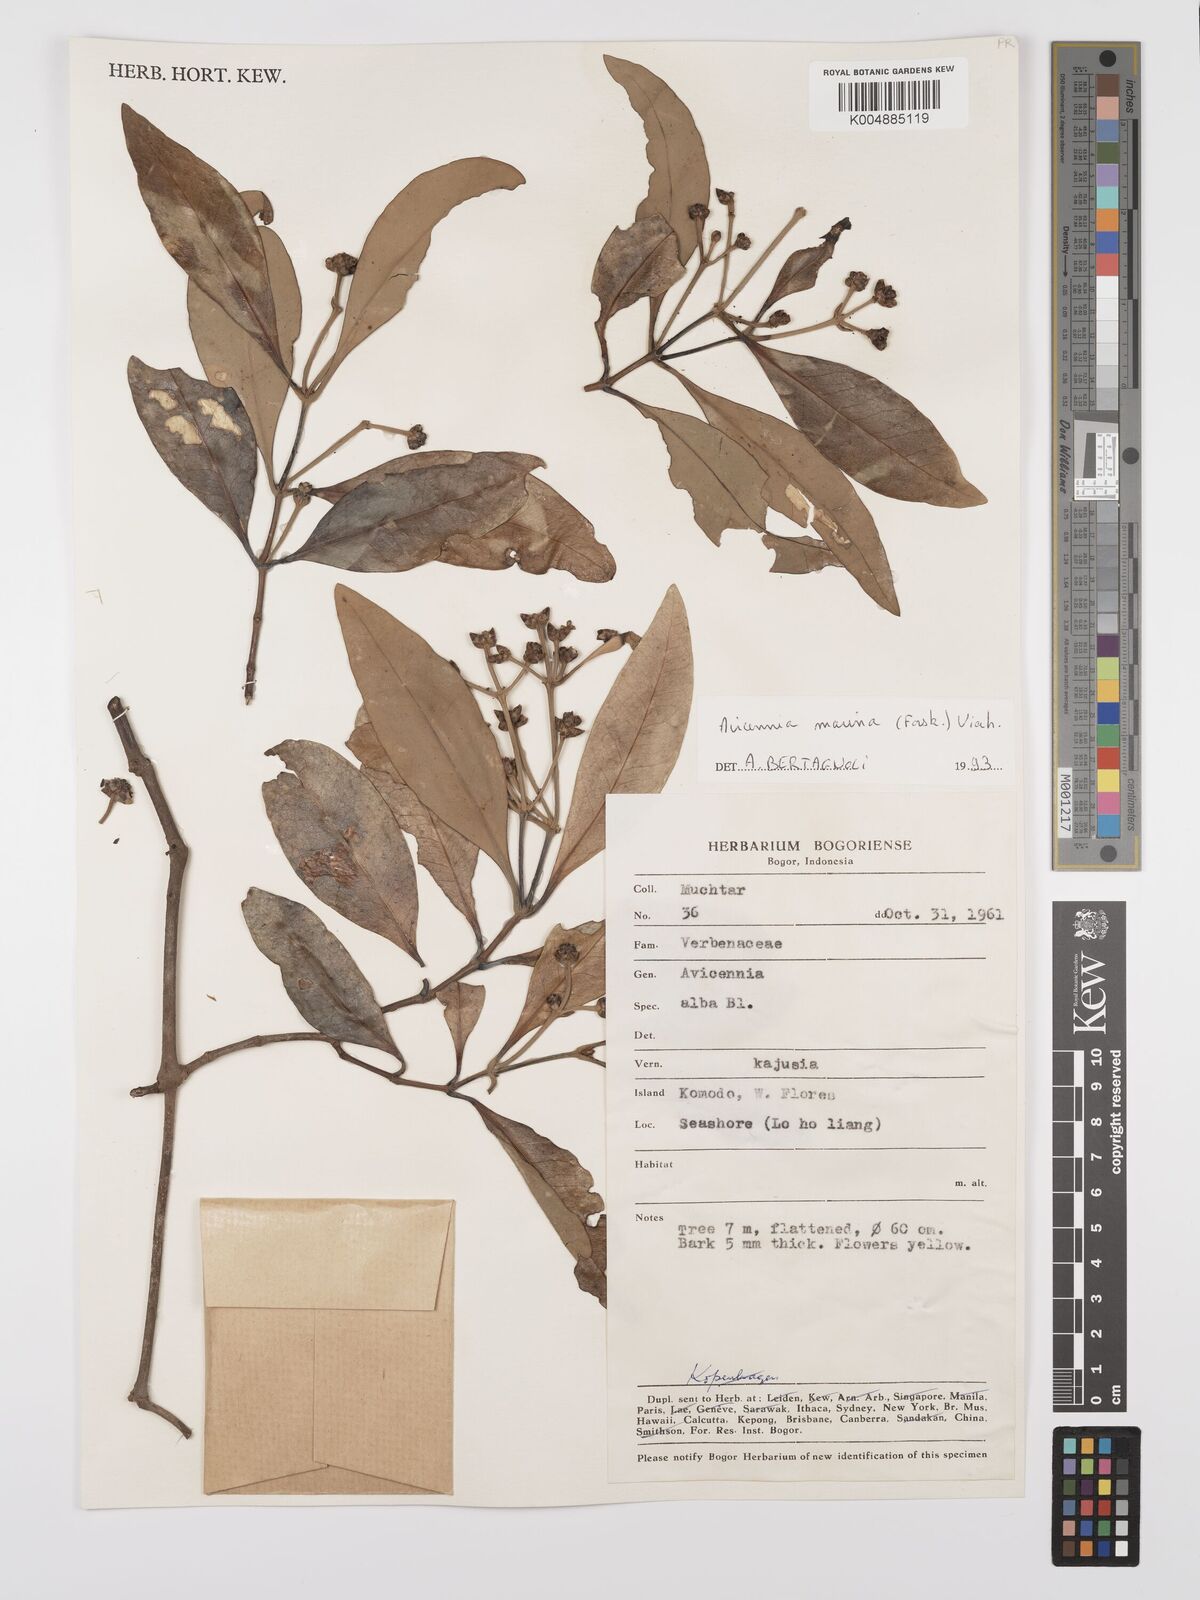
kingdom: Plantae
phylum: Tracheophyta
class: Magnoliopsida
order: Lamiales
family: Acanthaceae
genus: Avicennia
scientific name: Avicennia marina
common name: Gray mangrove
